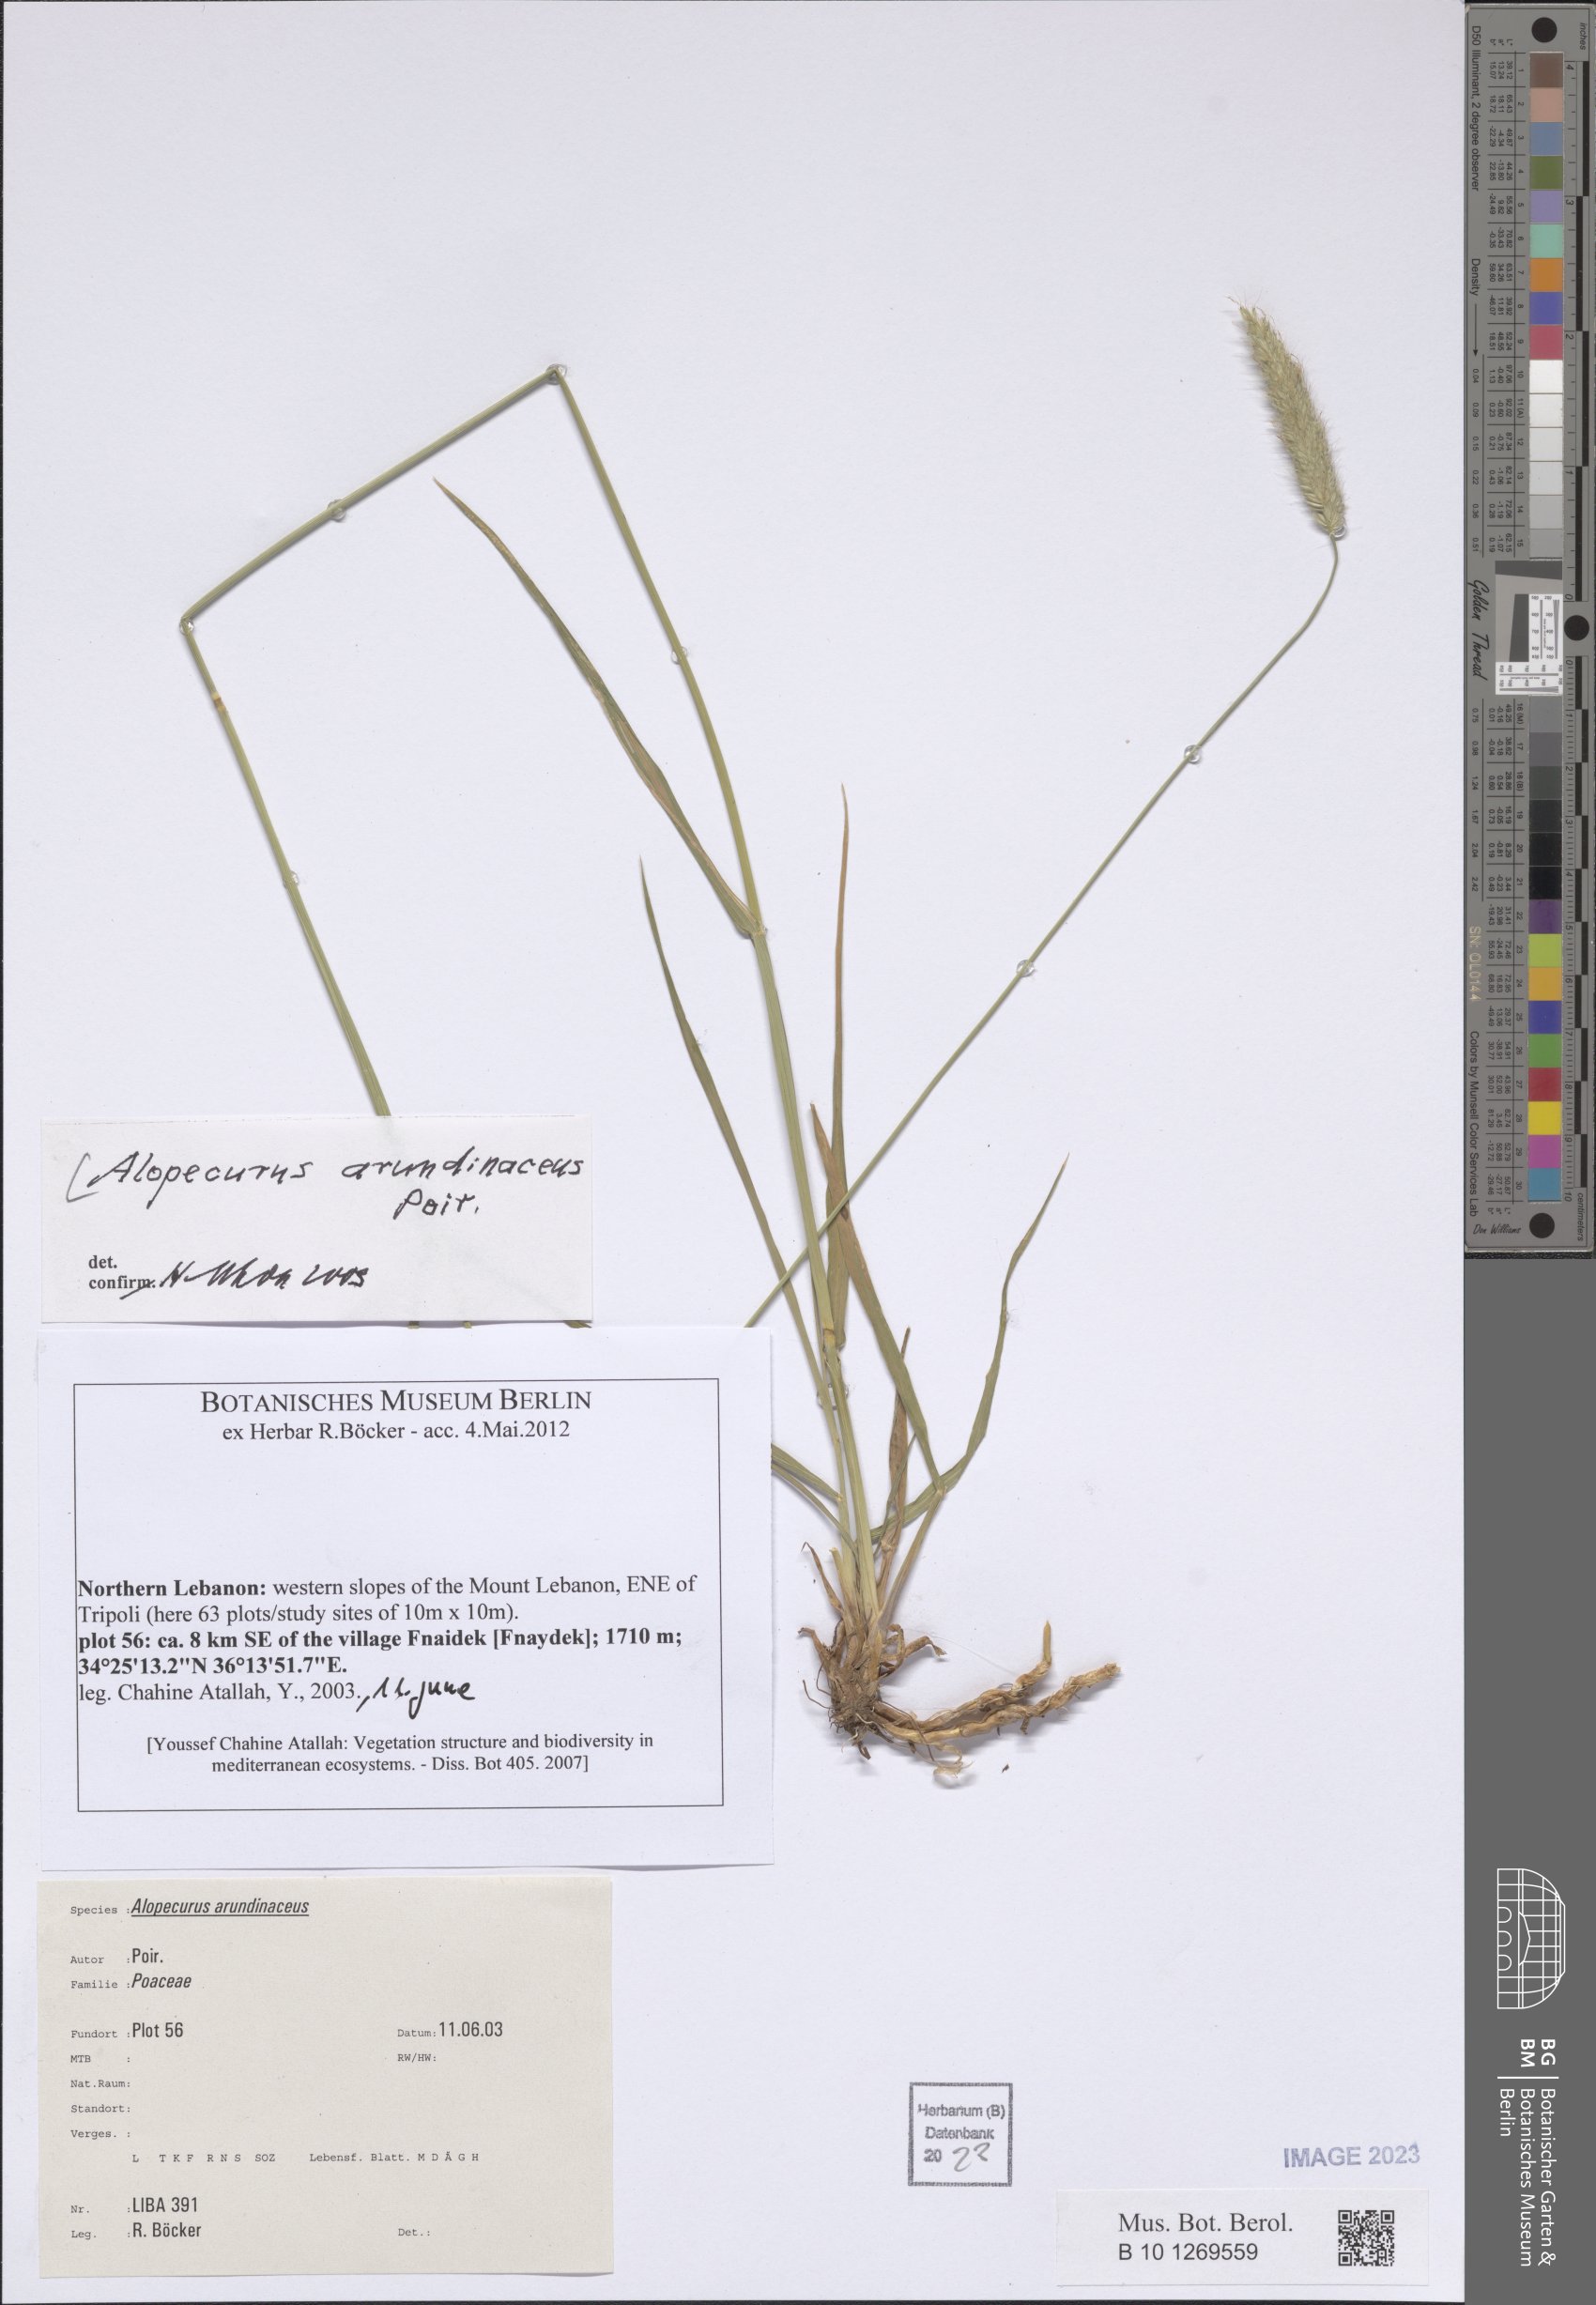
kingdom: Plantae
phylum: Tracheophyta
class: Liliopsida
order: Poales
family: Poaceae
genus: Alopecurus
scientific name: Alopecurus arundinaceus
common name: Creeping meadow foxtail
